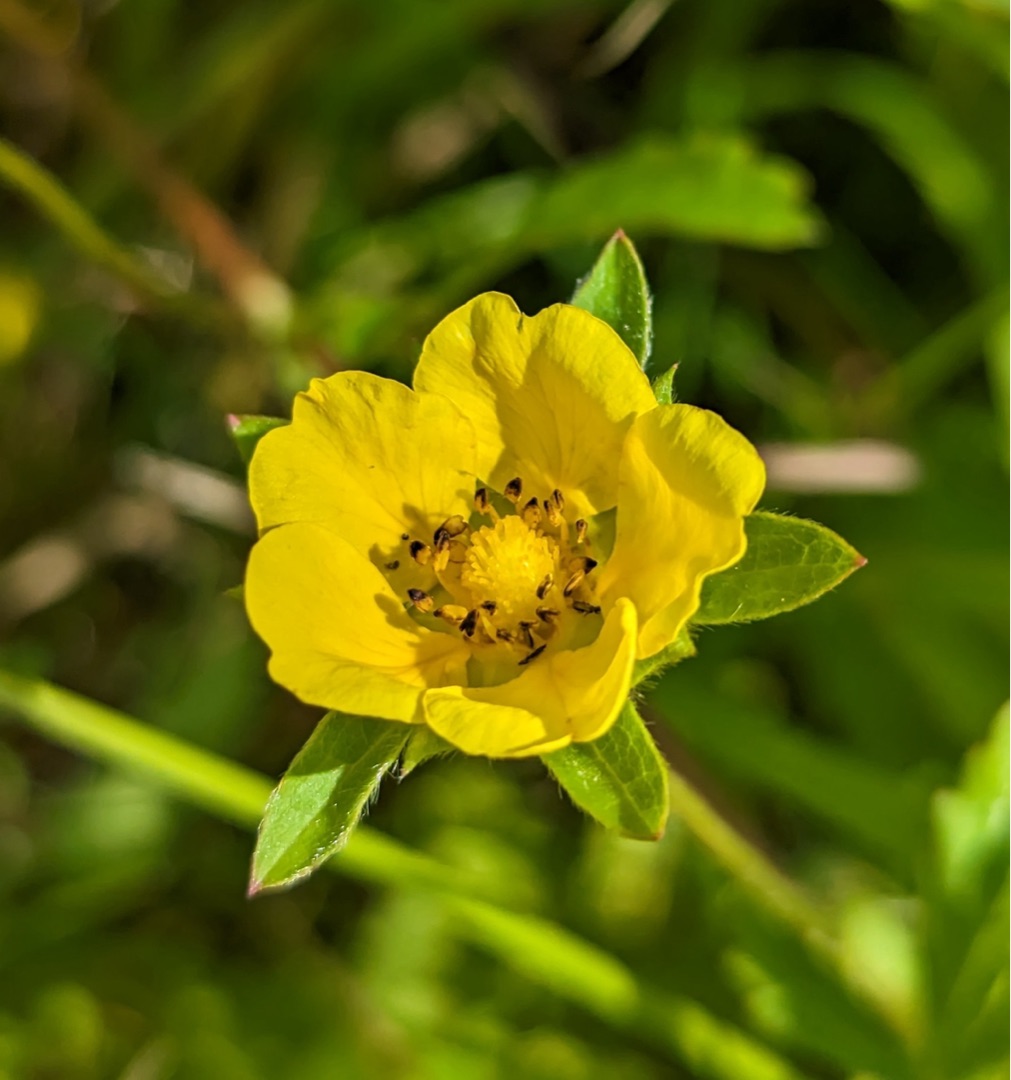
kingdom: Plantae
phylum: Tracheophyta
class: Magnoliopsida
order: Rosales
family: Rosaceae
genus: Potentilla
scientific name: Potentilla reptans
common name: Krybende potentil
